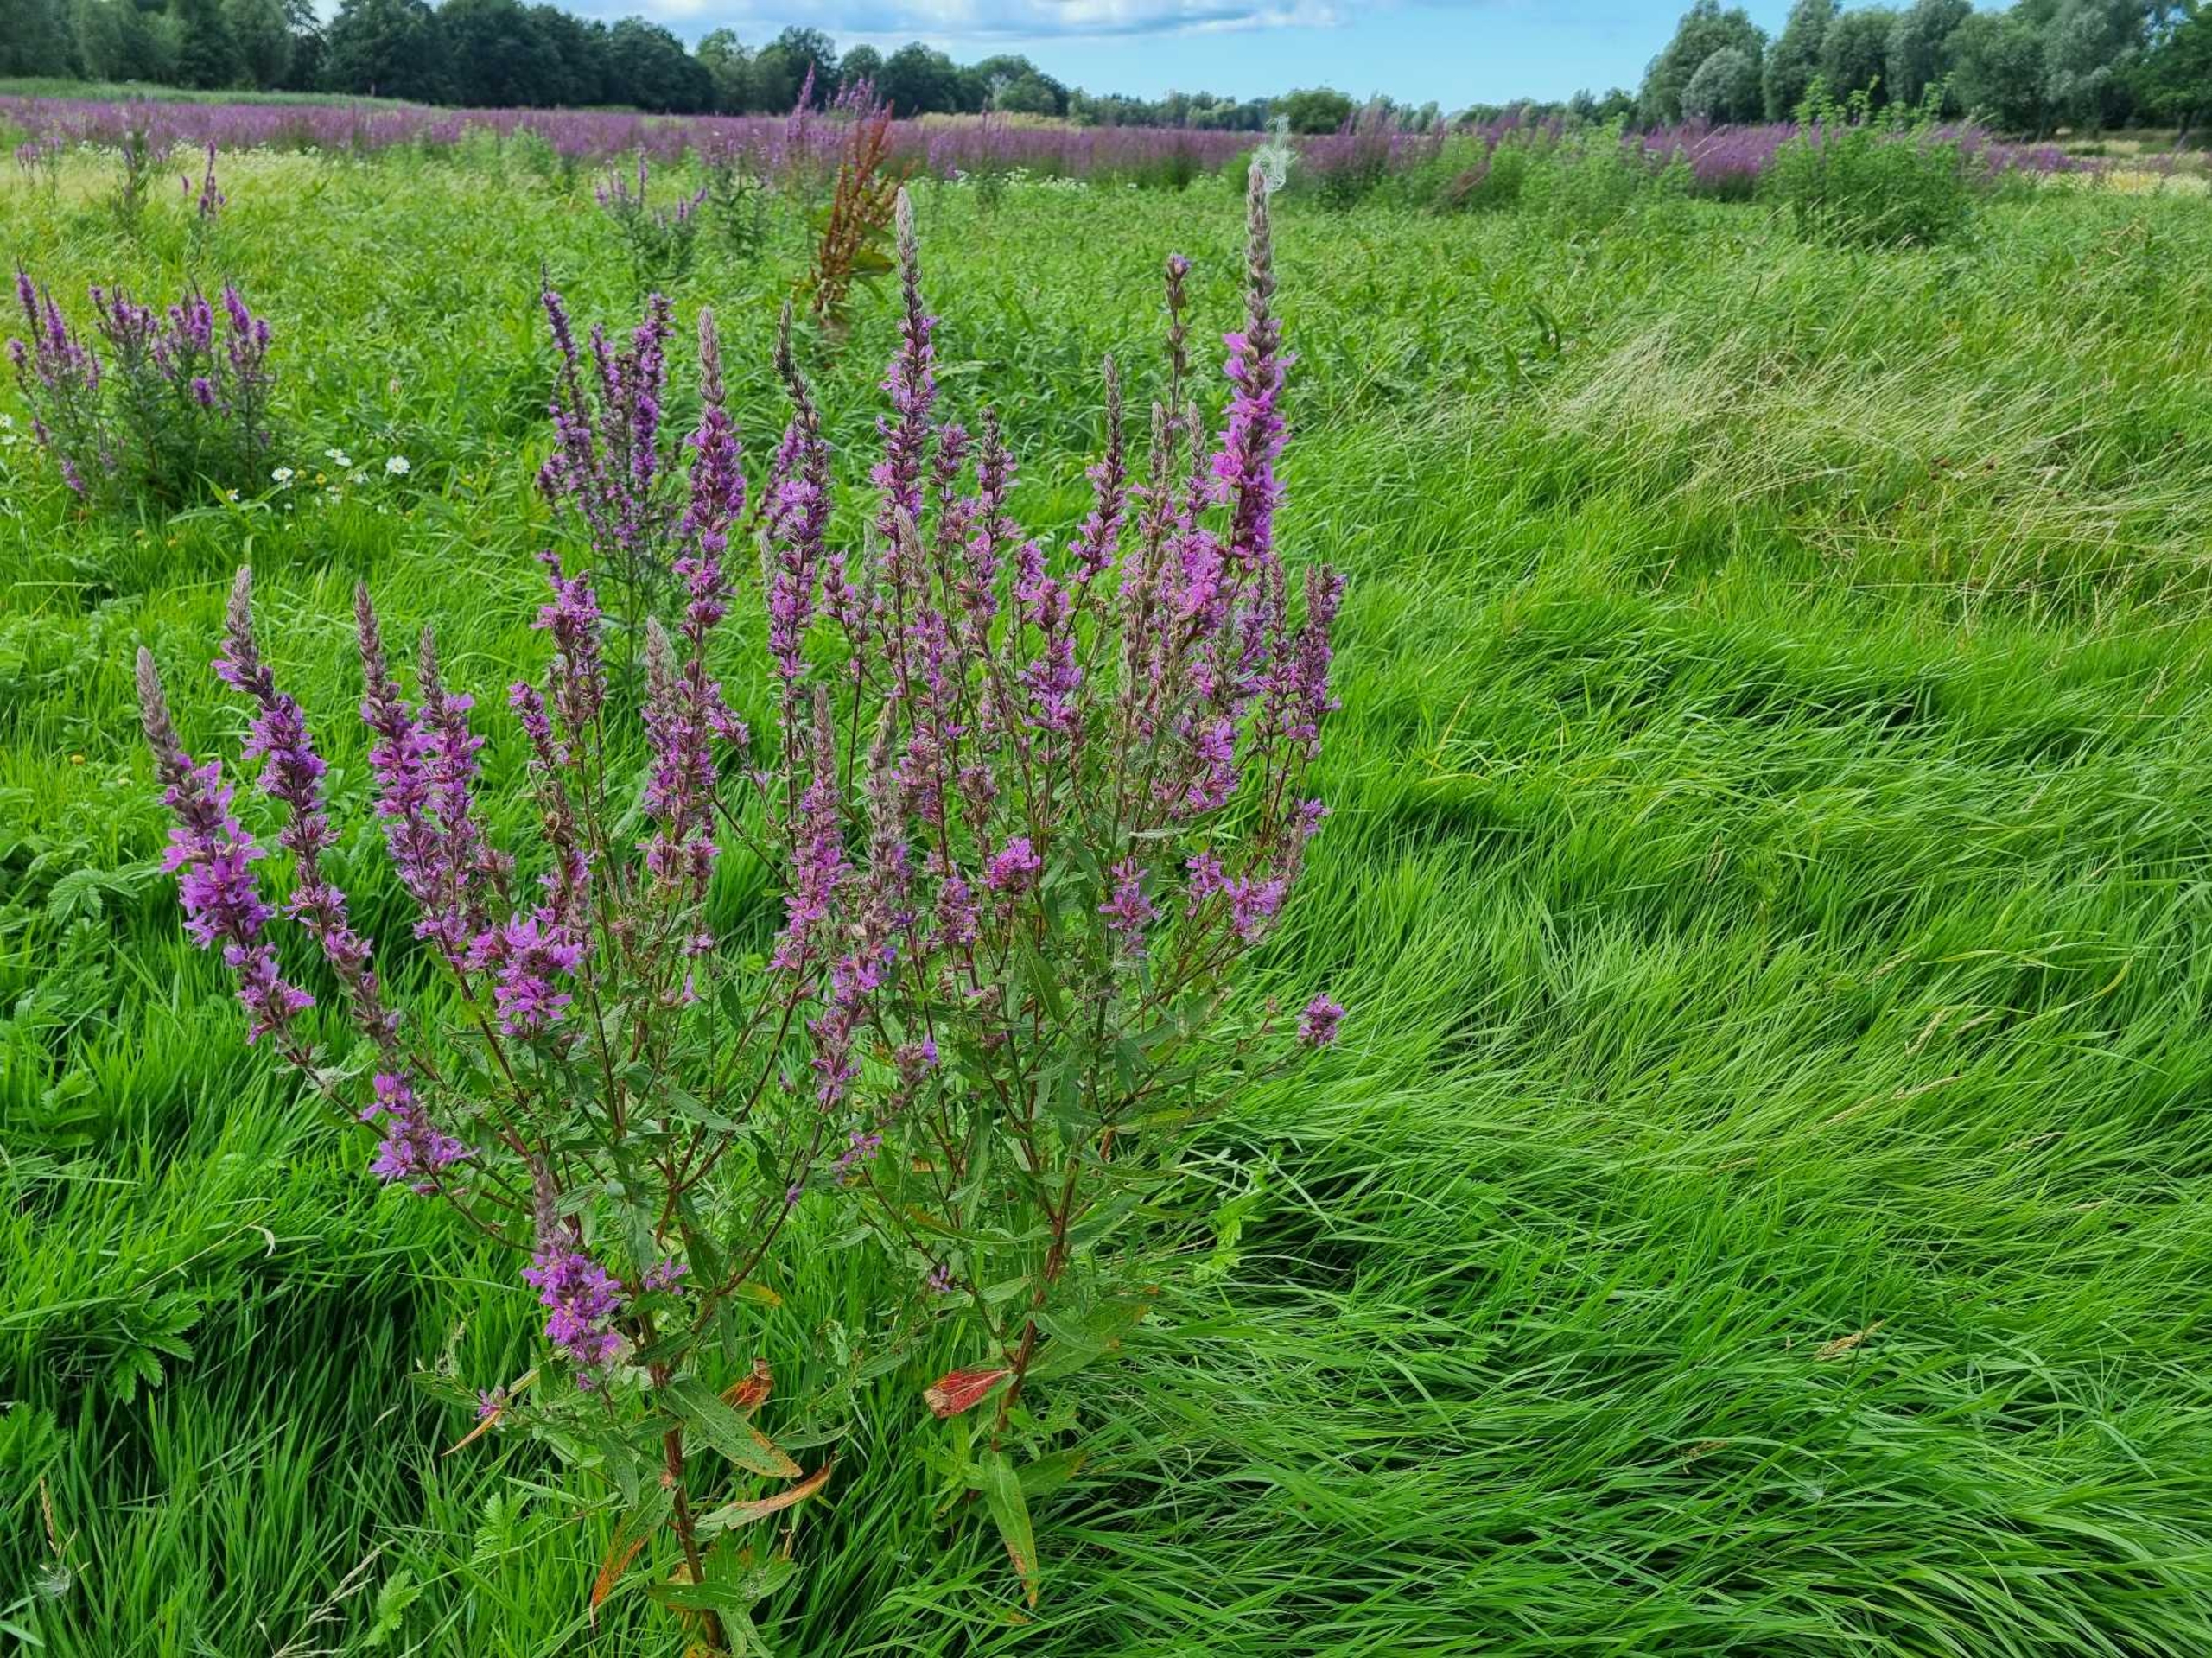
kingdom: Plantae
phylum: Tracheophyta
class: Magnoliopsida
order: Myrtales
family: Lythraceae
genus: Lythrum
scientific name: Lythrum salicaria
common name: Kattehale
